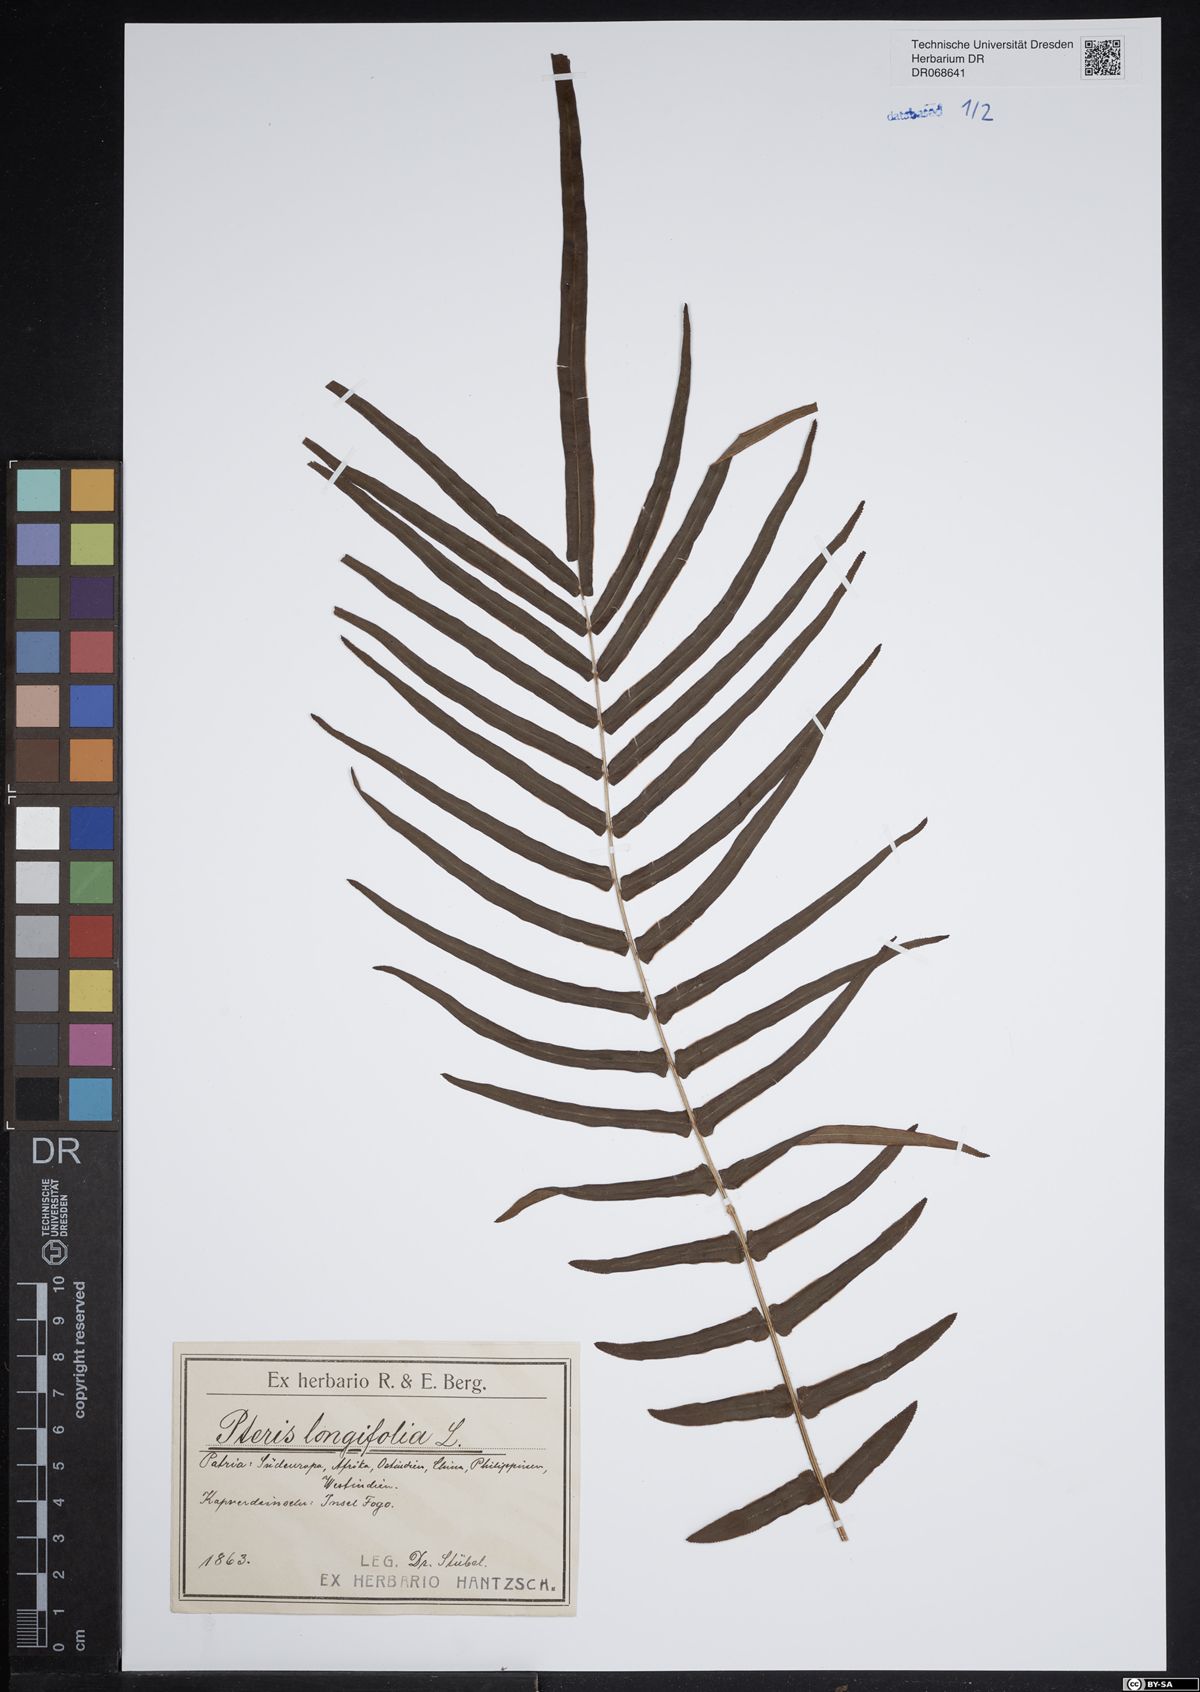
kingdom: Plantae
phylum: Tracheophyta
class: Polypodiopsida
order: Polypodiales
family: Pteridaceae
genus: Pteris
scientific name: Pteris longifolia
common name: Longleaf brake
